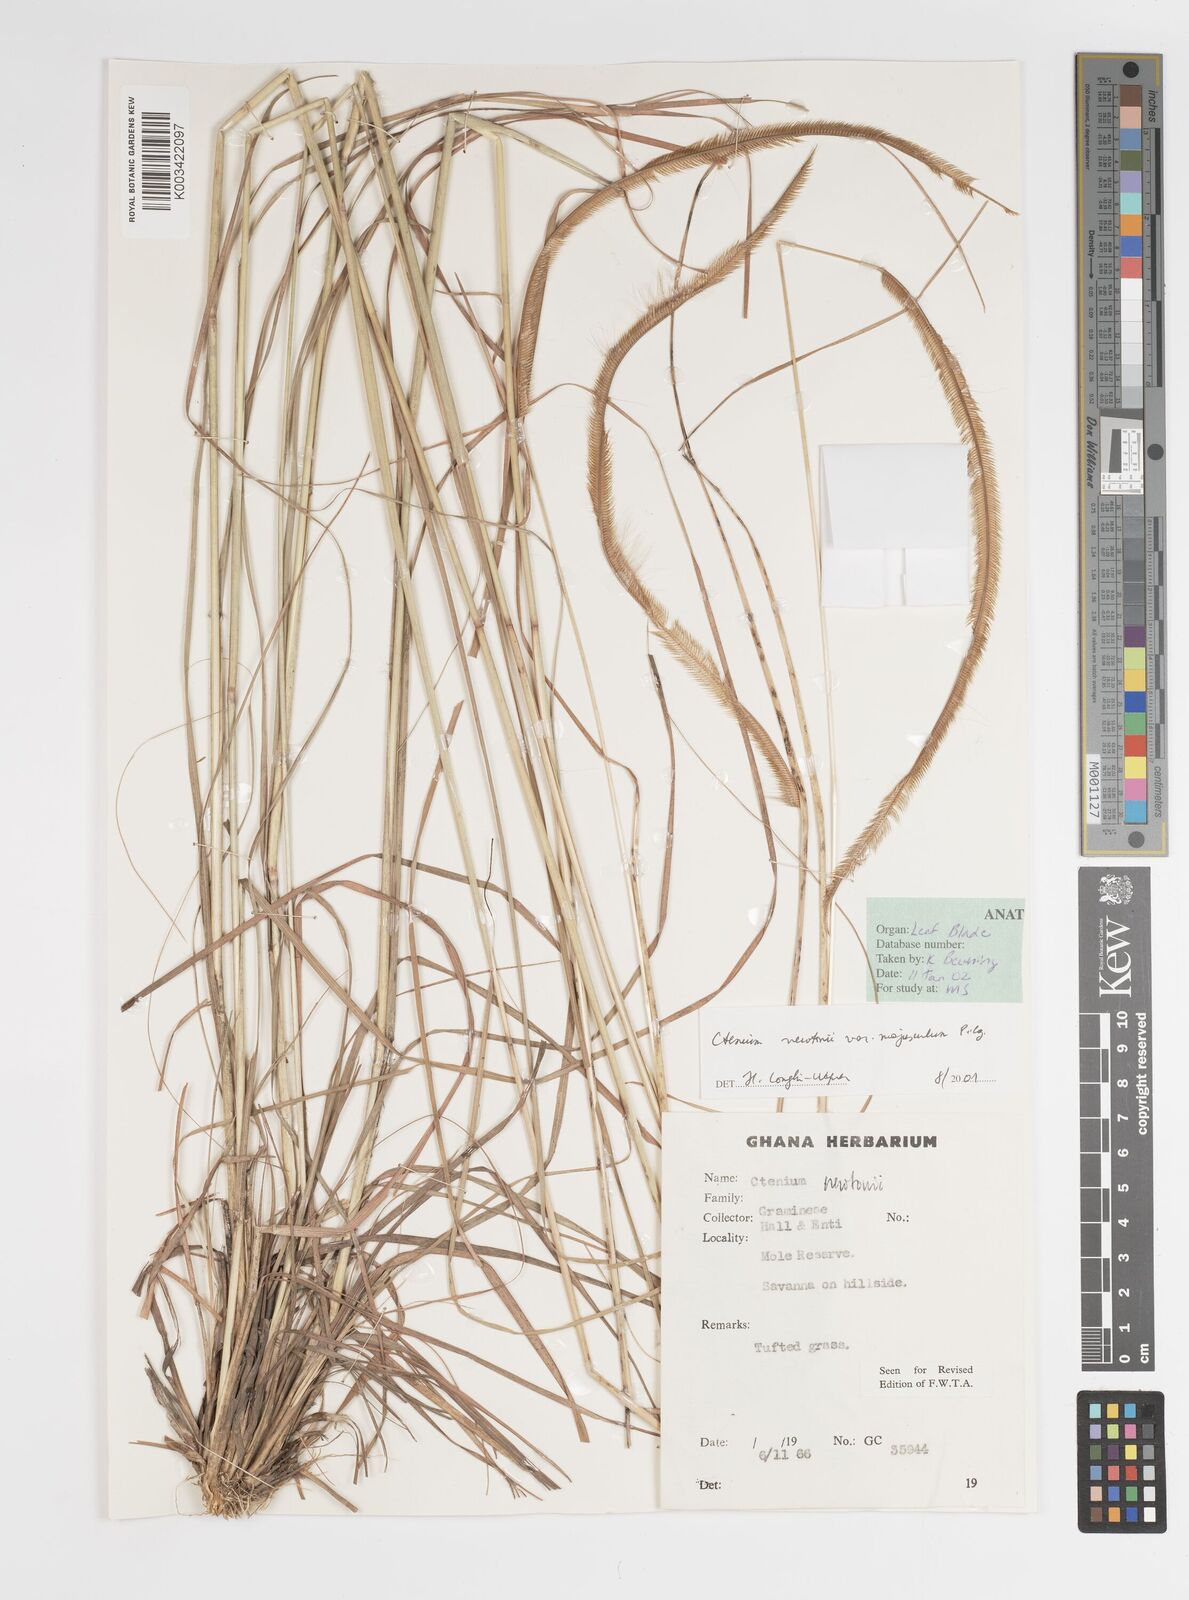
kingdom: Plantae
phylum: Tracheophyta
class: Liliopsida
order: Poales
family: Poaceae
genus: Ctenium
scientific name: Ctenium newtonii
